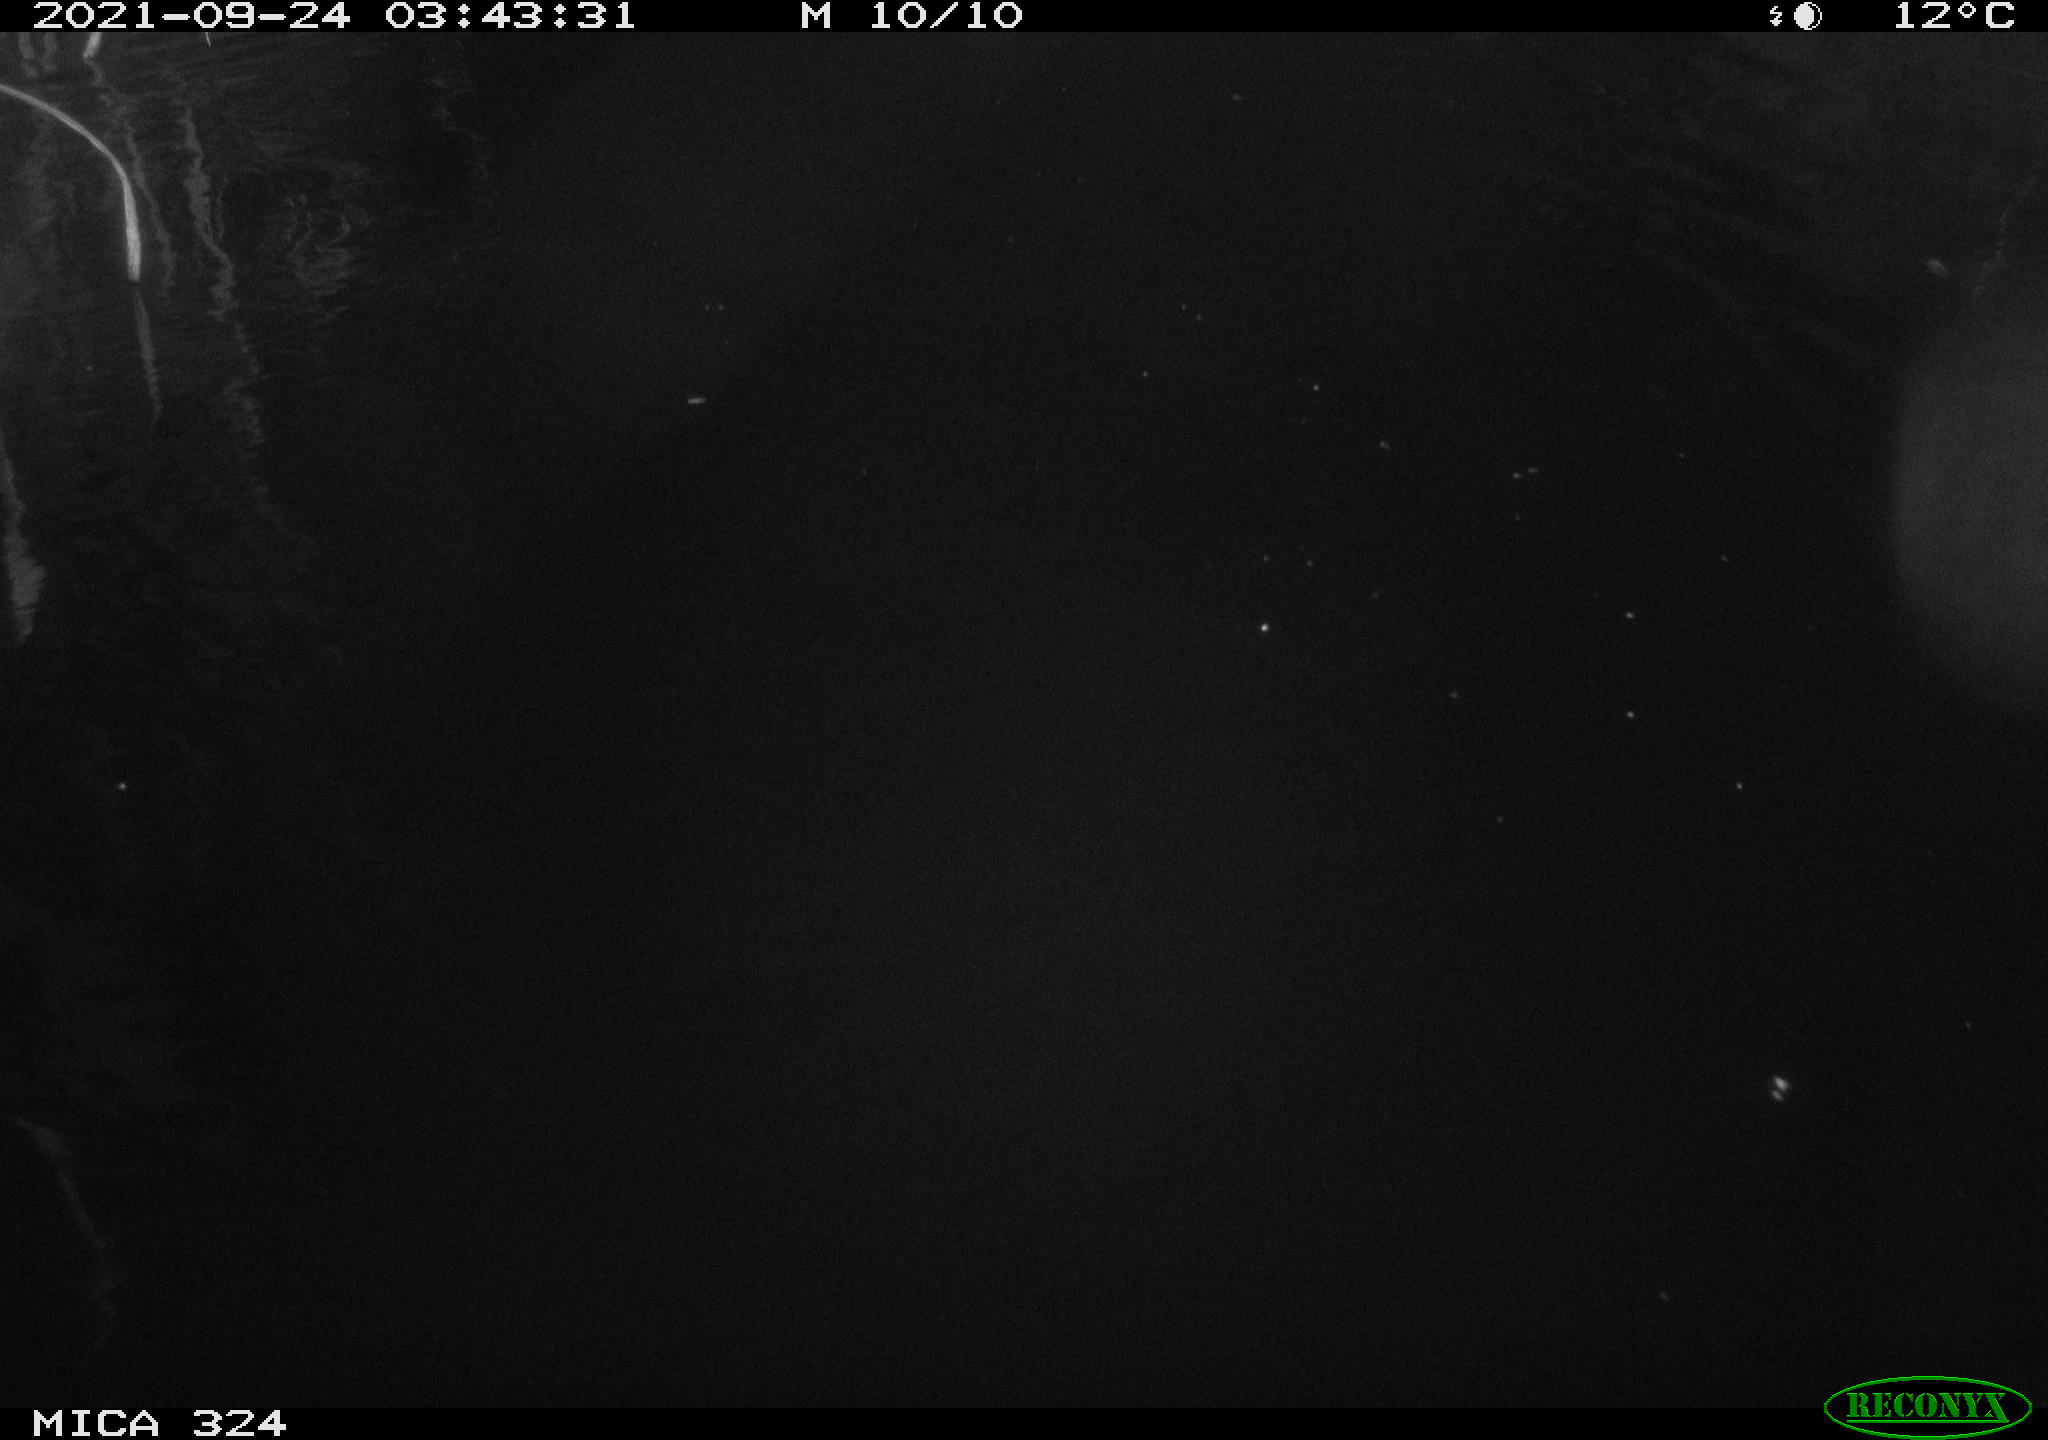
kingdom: Animalia
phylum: Chordata
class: Mammalia
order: Rodentia
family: Cricetidae
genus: Ondatra
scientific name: Ondatra zibethicus
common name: Muskrat
